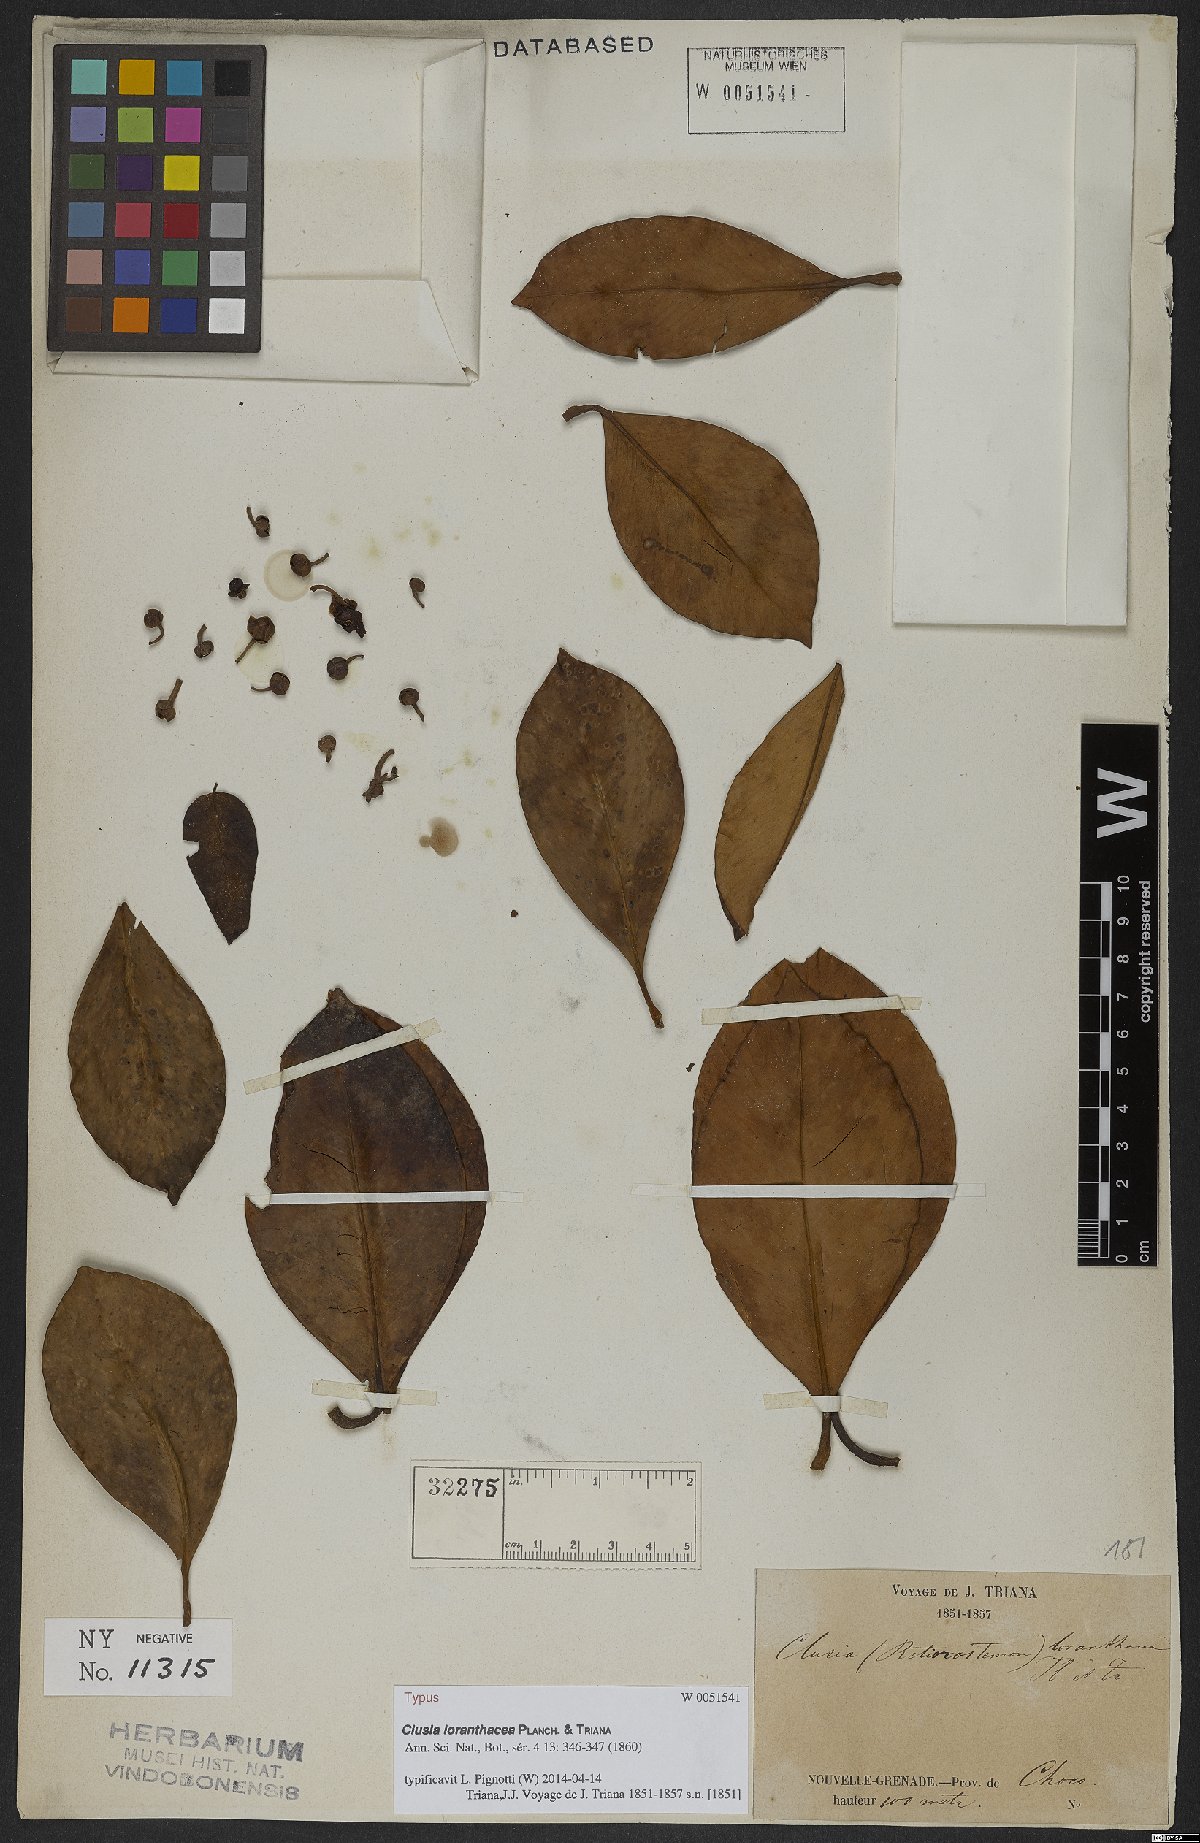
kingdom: Plantae
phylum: Tracheophyta
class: Magnoliopsida
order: Malpighiales
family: Clusiaceae
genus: Clusia
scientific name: Clusia loranthacea
